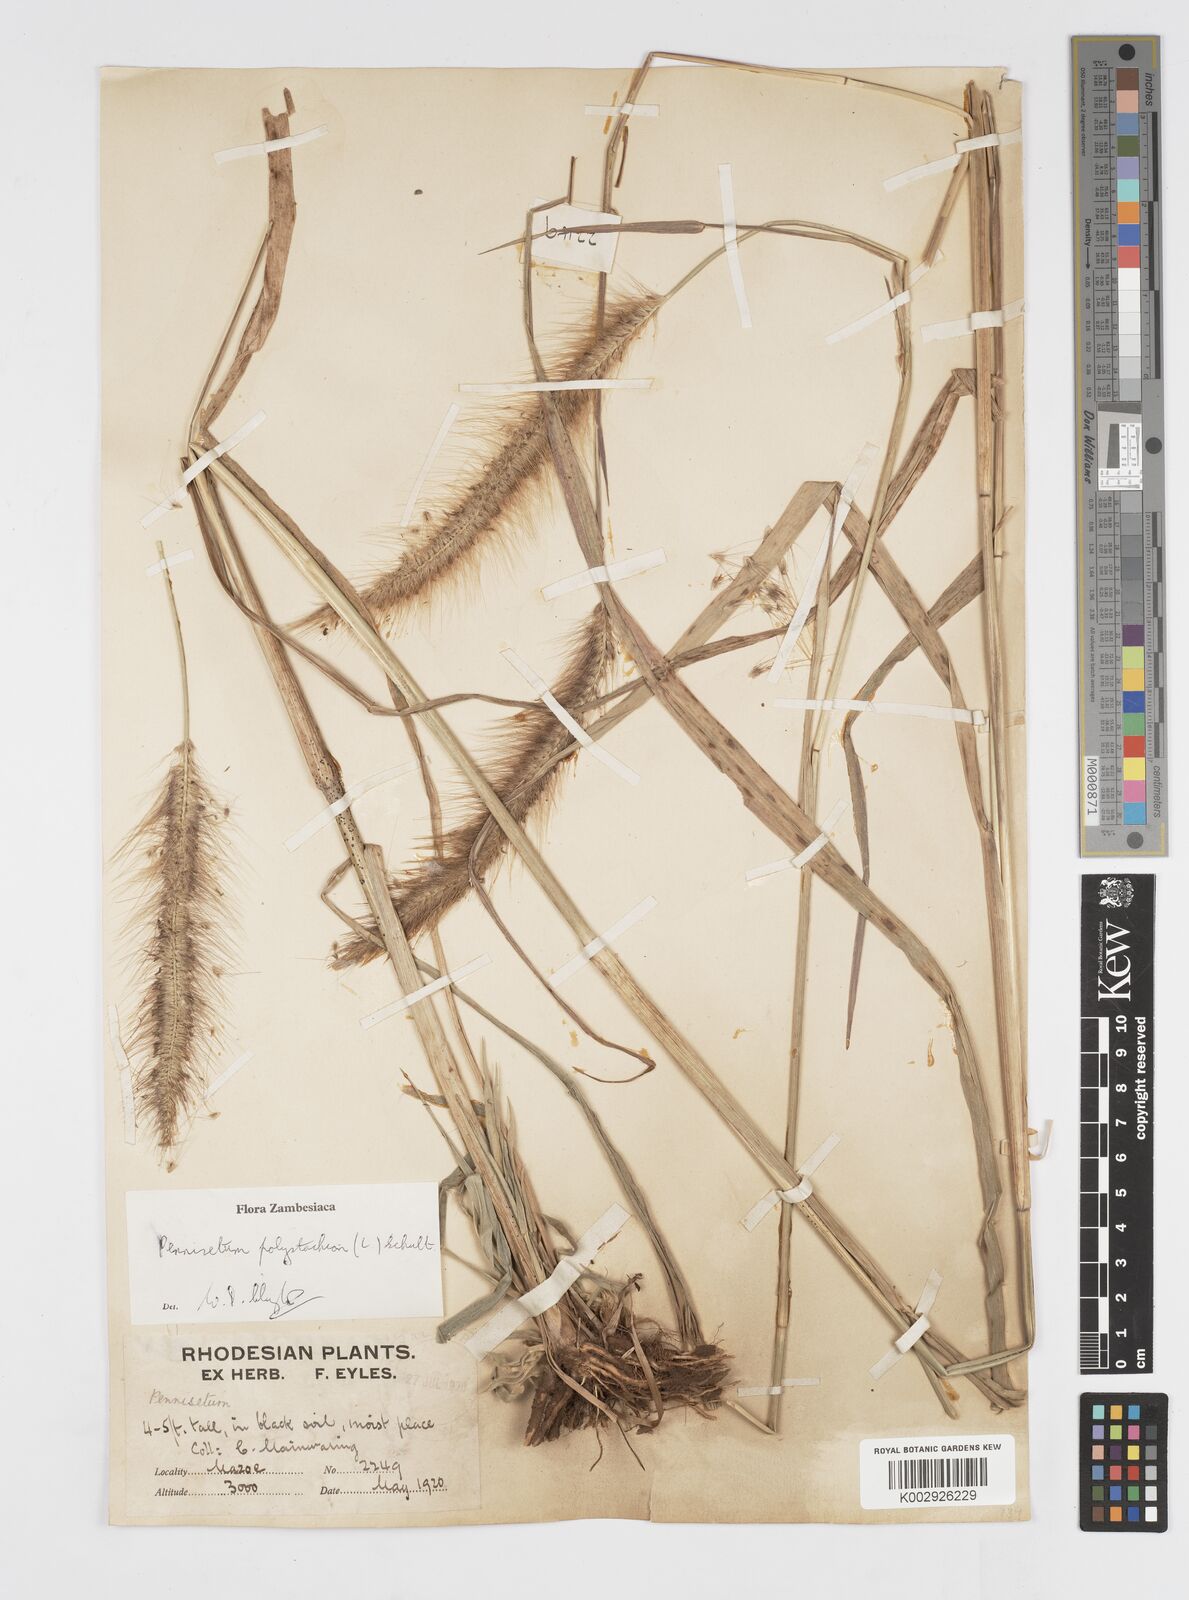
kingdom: Plantae
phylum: Tracheophyta
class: Liliopsida
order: Poales
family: Poaceae
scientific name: Poaceae
